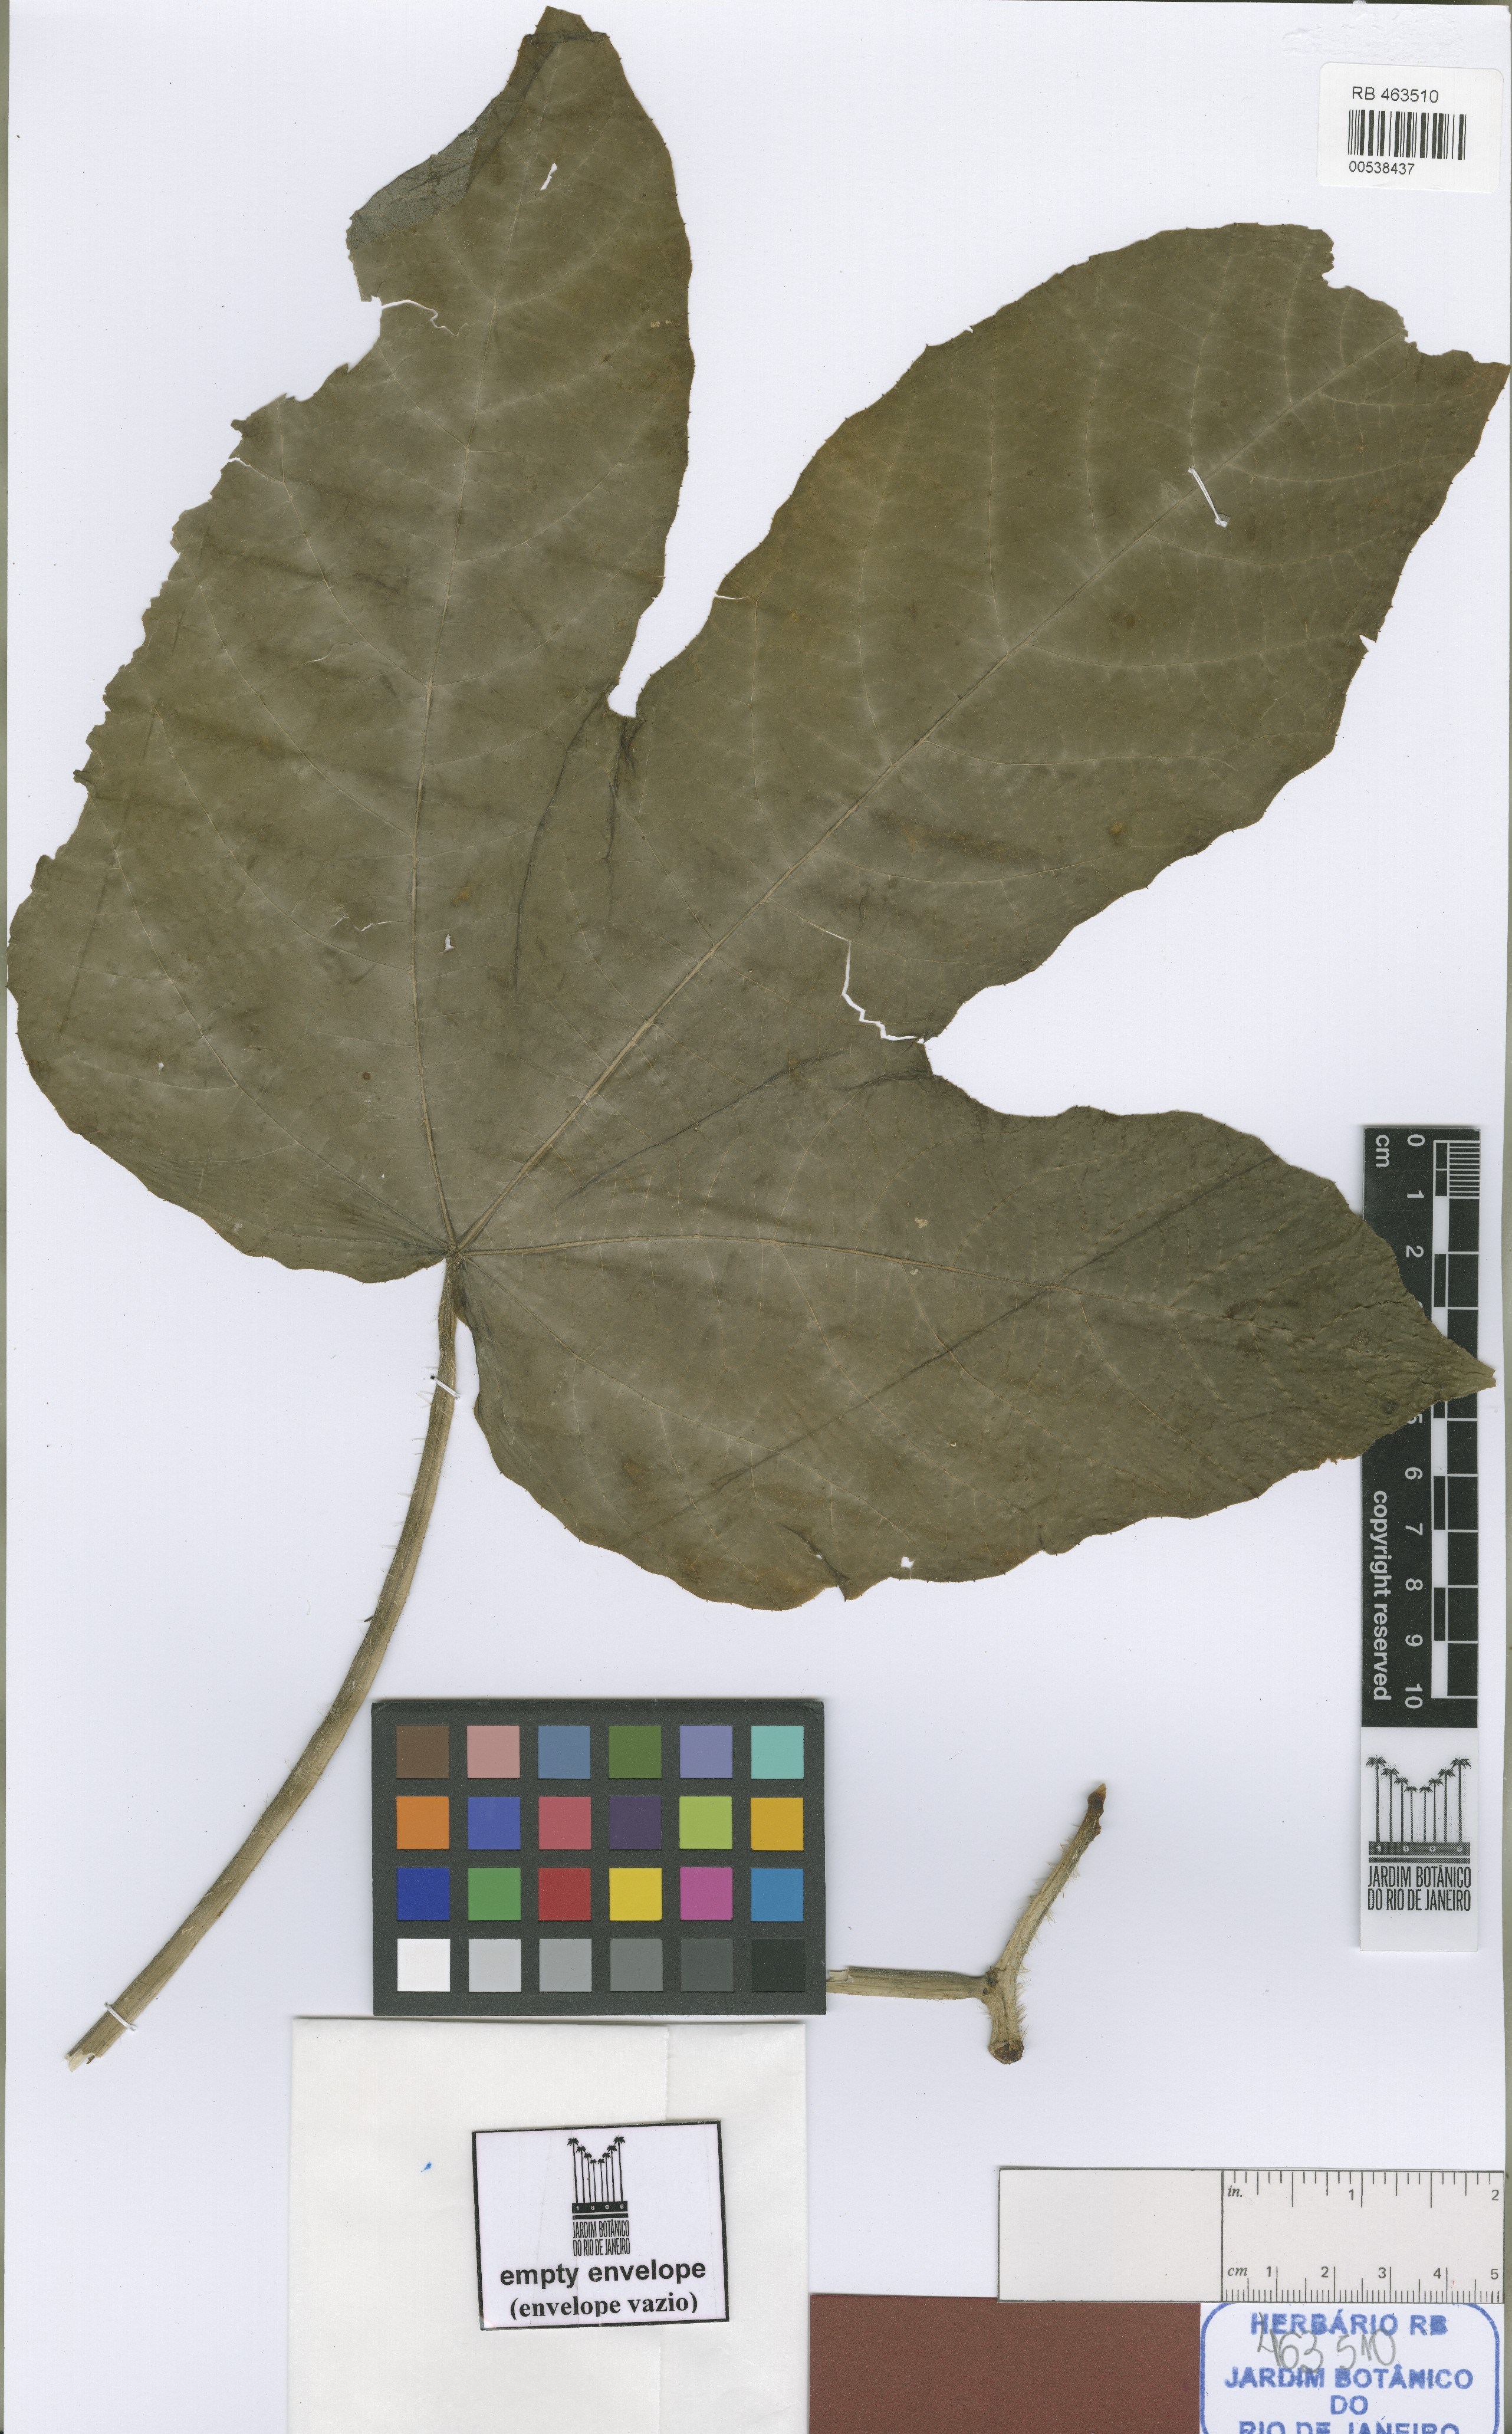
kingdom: Plantae
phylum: Tracheophyta
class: Magnoliopsida
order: Malpighiales
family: Euphorbiaceae
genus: Cnidoscolus
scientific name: Cnidoscolus cervii
